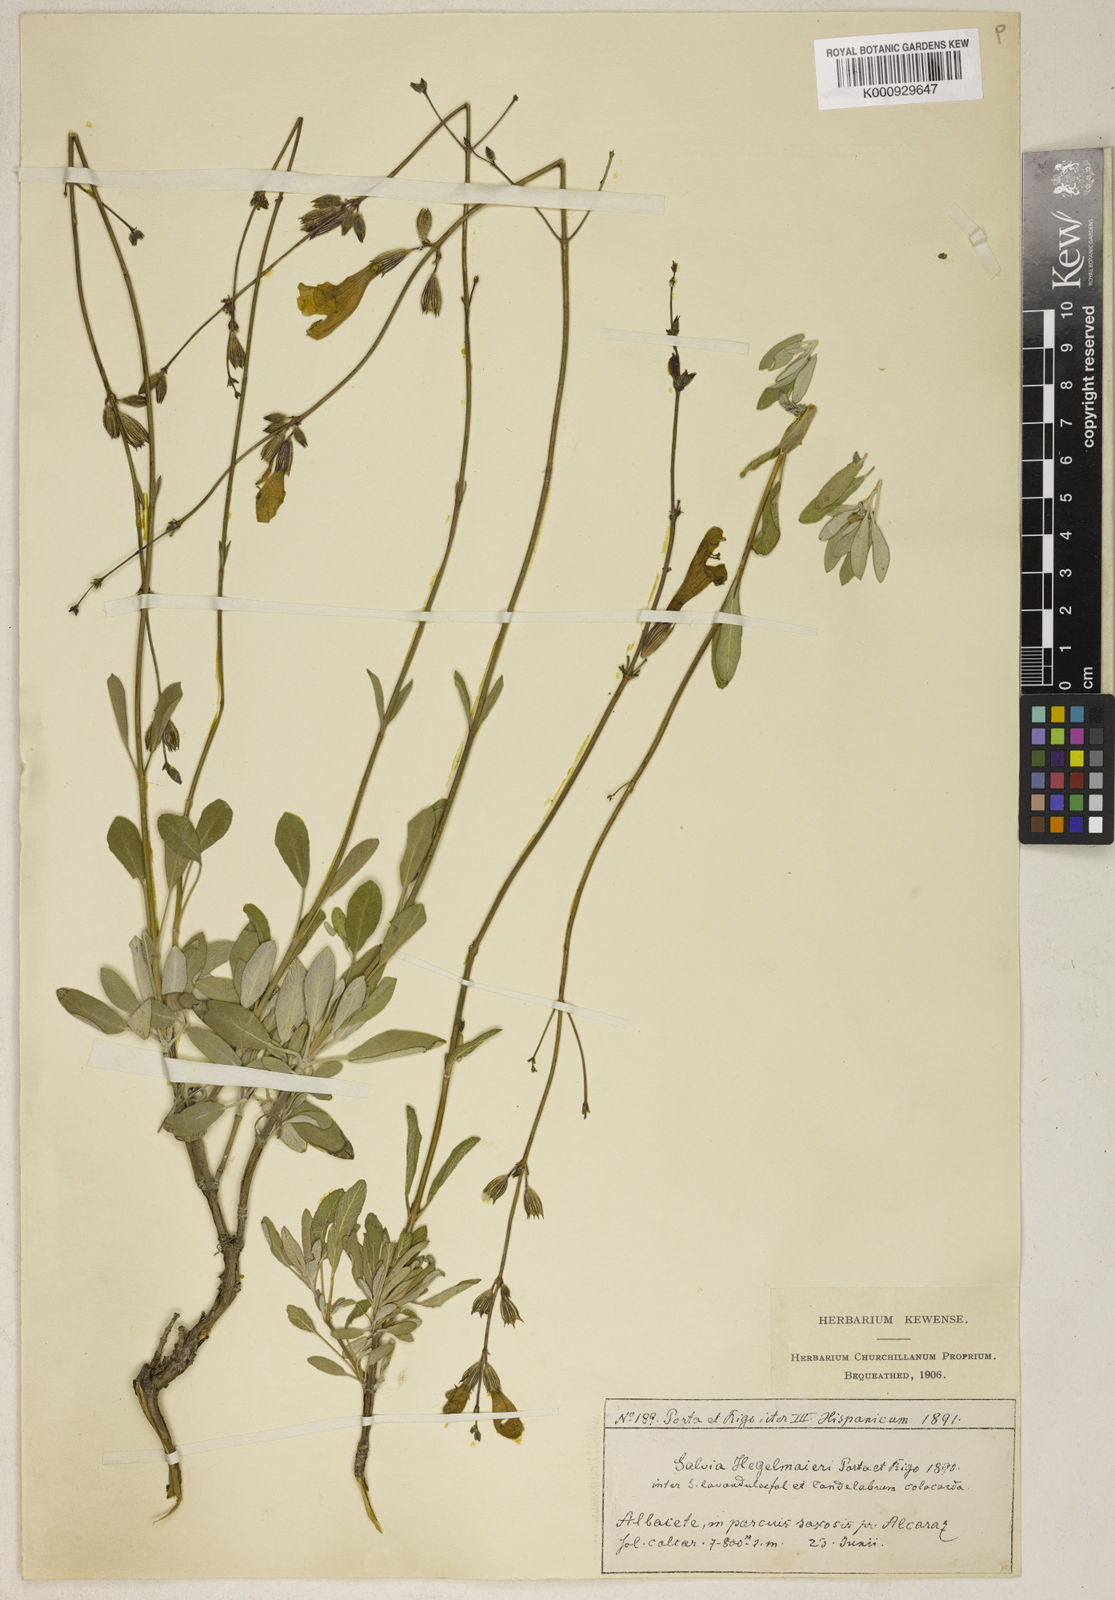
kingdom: Plantae
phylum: Tracheophyta
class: Magnoliopsida
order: Lamiales
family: Lamiaceae
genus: Salvia
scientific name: Salvia hegelmaieri
